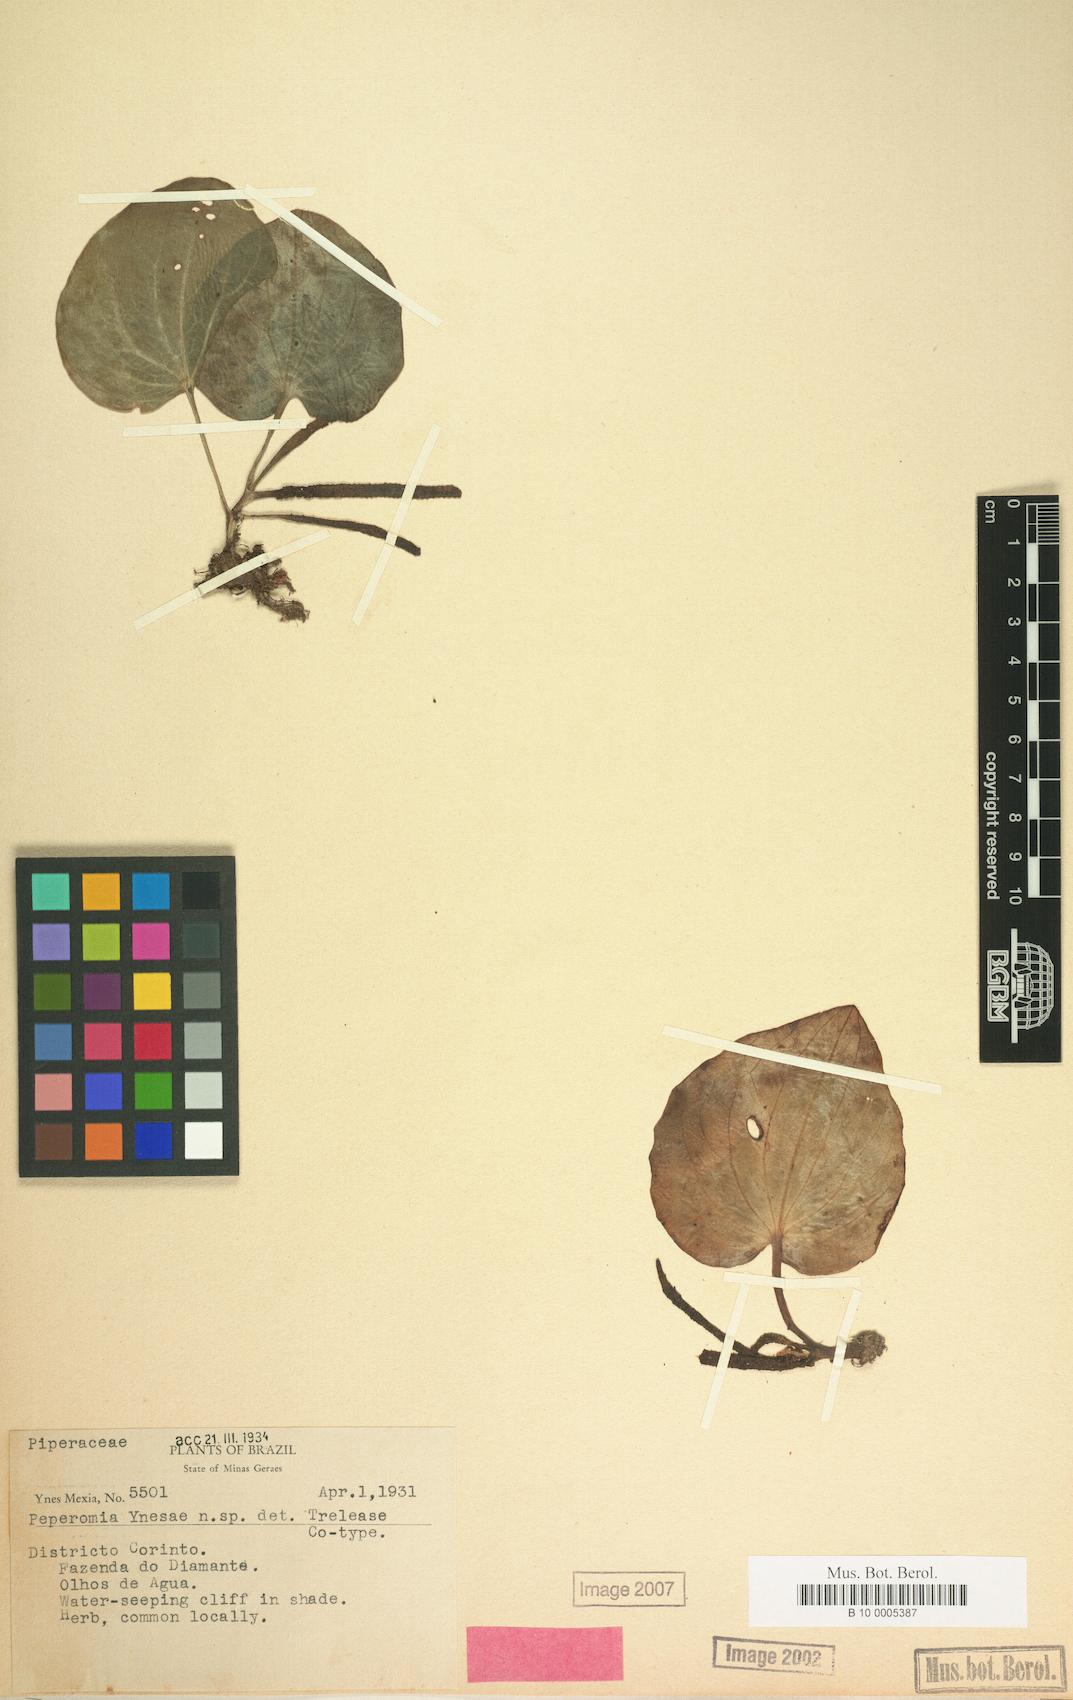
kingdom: Plantae
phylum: Tracheophyta
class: Magnoliopsida
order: Piperales
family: Piperaceae
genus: Peperomia
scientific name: Peperomia
